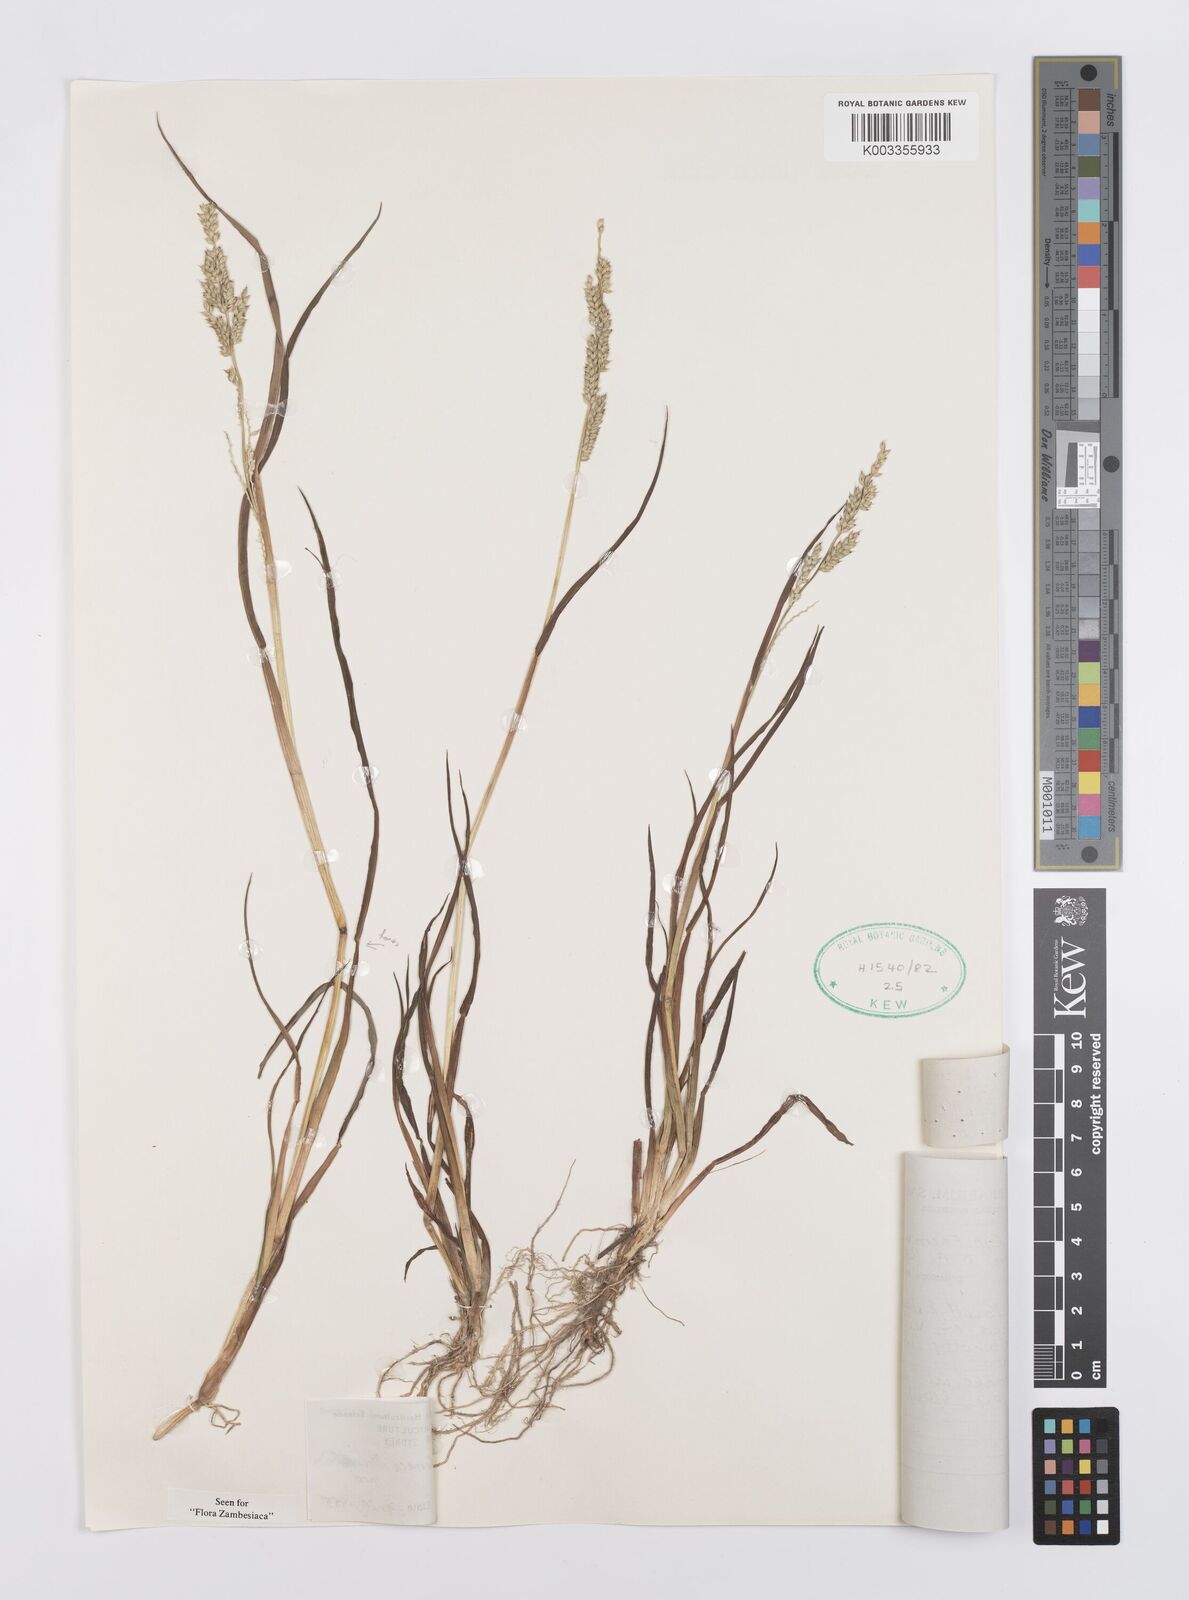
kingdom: Plantae
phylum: Tracheophyta
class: Liliopsida
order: Poales
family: Poaceae
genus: Echinochloa
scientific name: Echinochloa ugandensis
